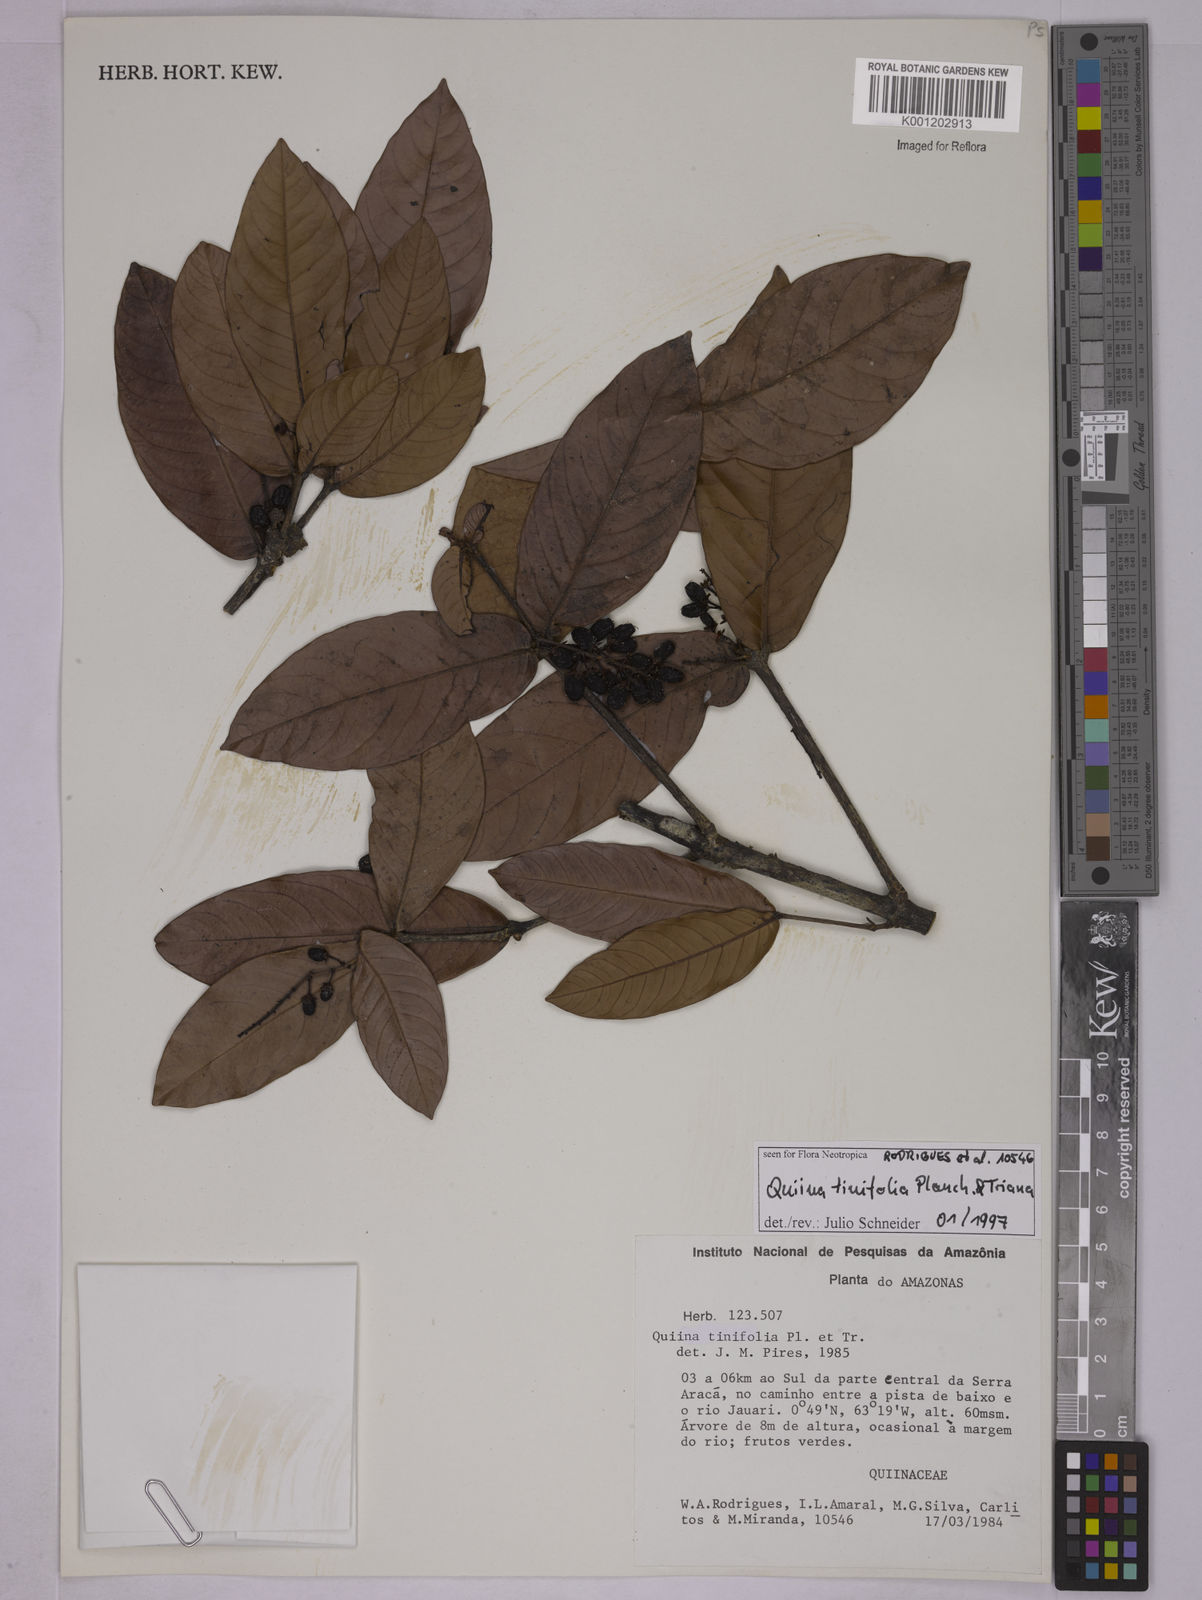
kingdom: Plantae
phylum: Tracheophyta
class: Magnoliopsida
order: Malpighiales
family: Quiinaceae
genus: Quiina
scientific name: Quiina tinifolia
